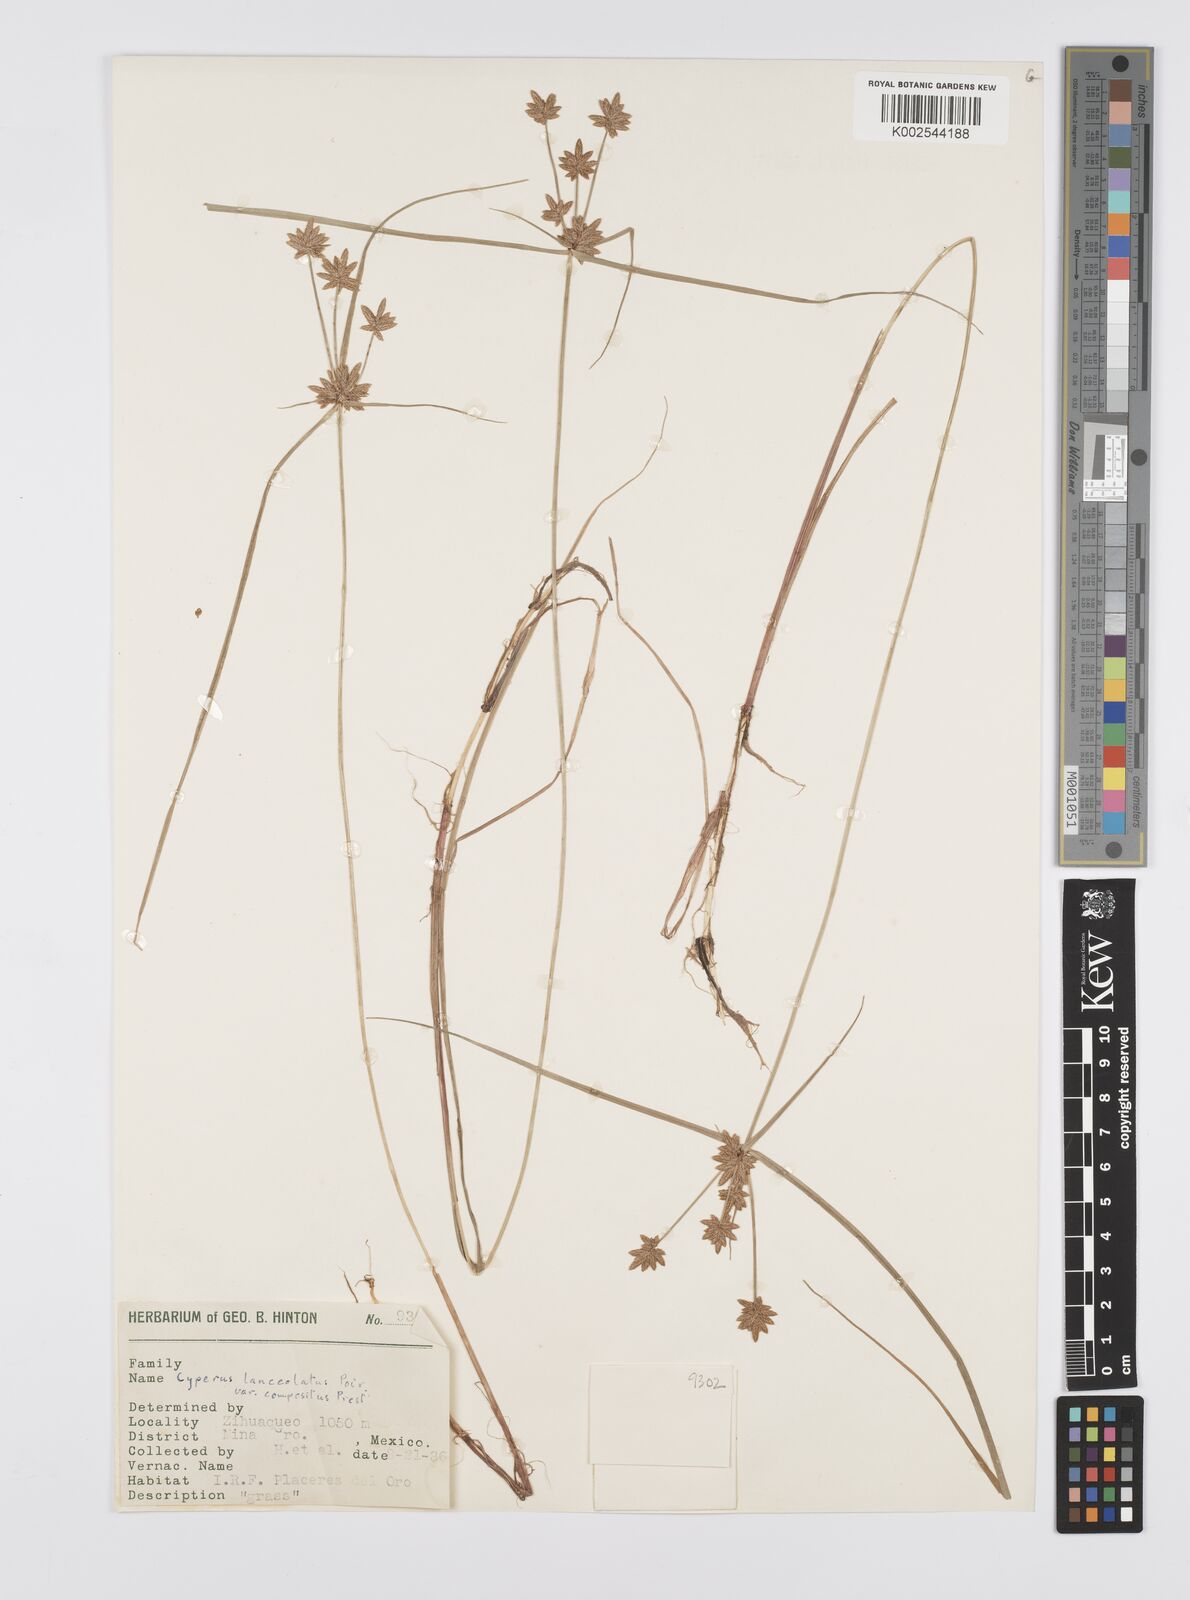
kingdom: Plantae
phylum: Tracheophyta
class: Liliopsida
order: Poales
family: Cyperaceae
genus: Cyperus
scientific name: Cyperus
